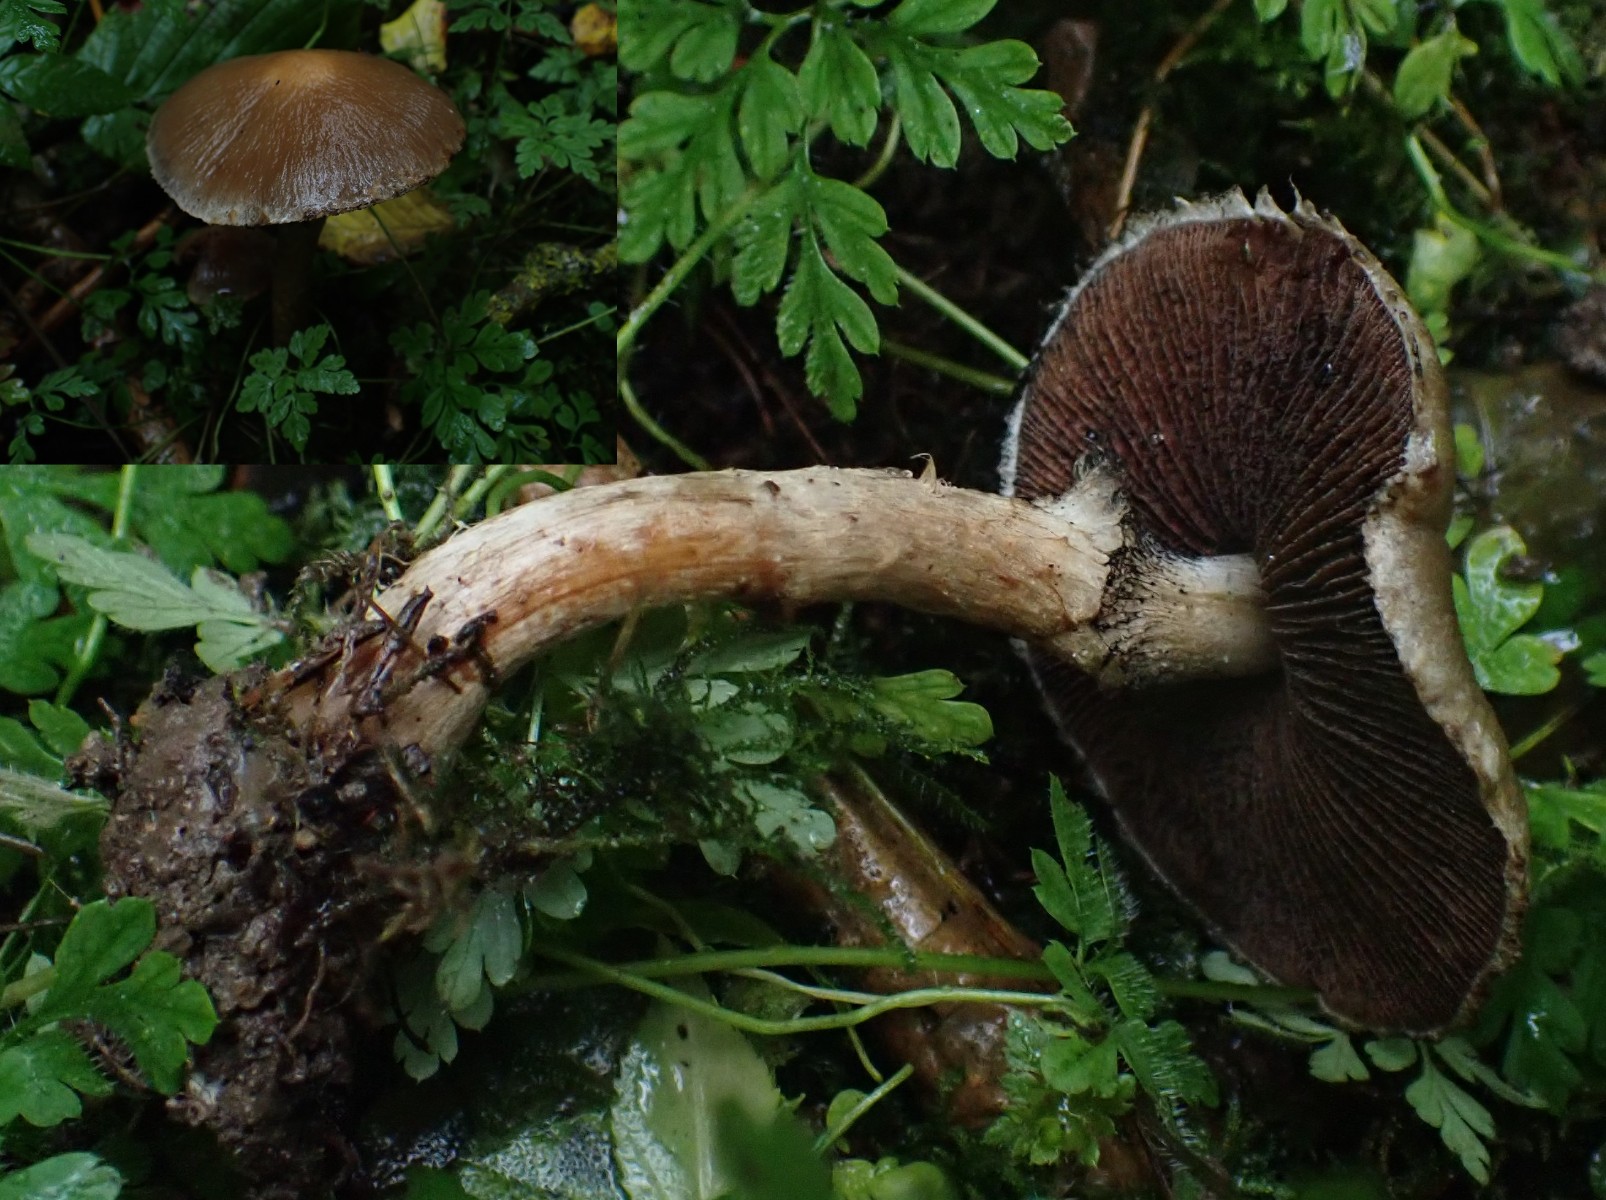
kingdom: Fungi
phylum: Basidiomycota
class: Agaricomycetes
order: Agaricales
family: Psathyrellaceae
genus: Lacrymaria
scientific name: Lacrymaria lacrymabunda
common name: grædende mørkhat
